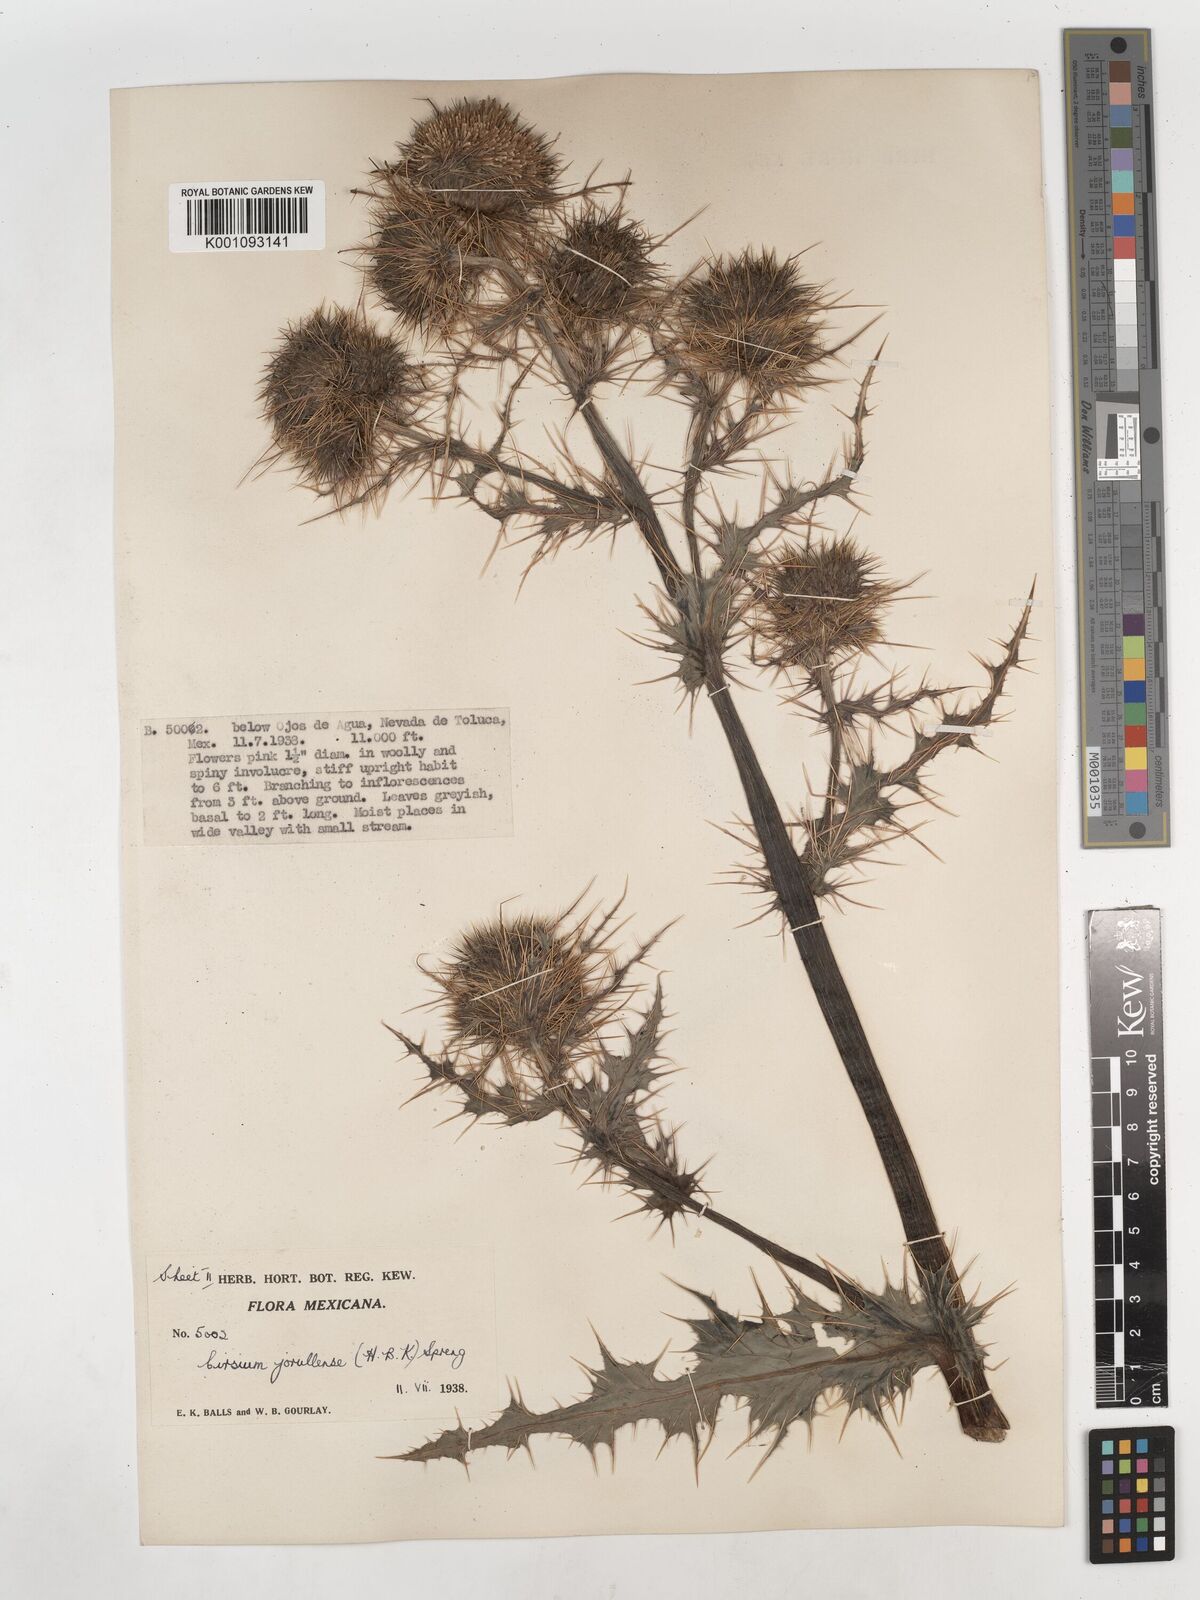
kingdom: Plantae
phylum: Tracheophyta
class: Magnoliopsida
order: Asterales
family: Asteraceae
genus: Cirsium
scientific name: Cirsium jorullense
